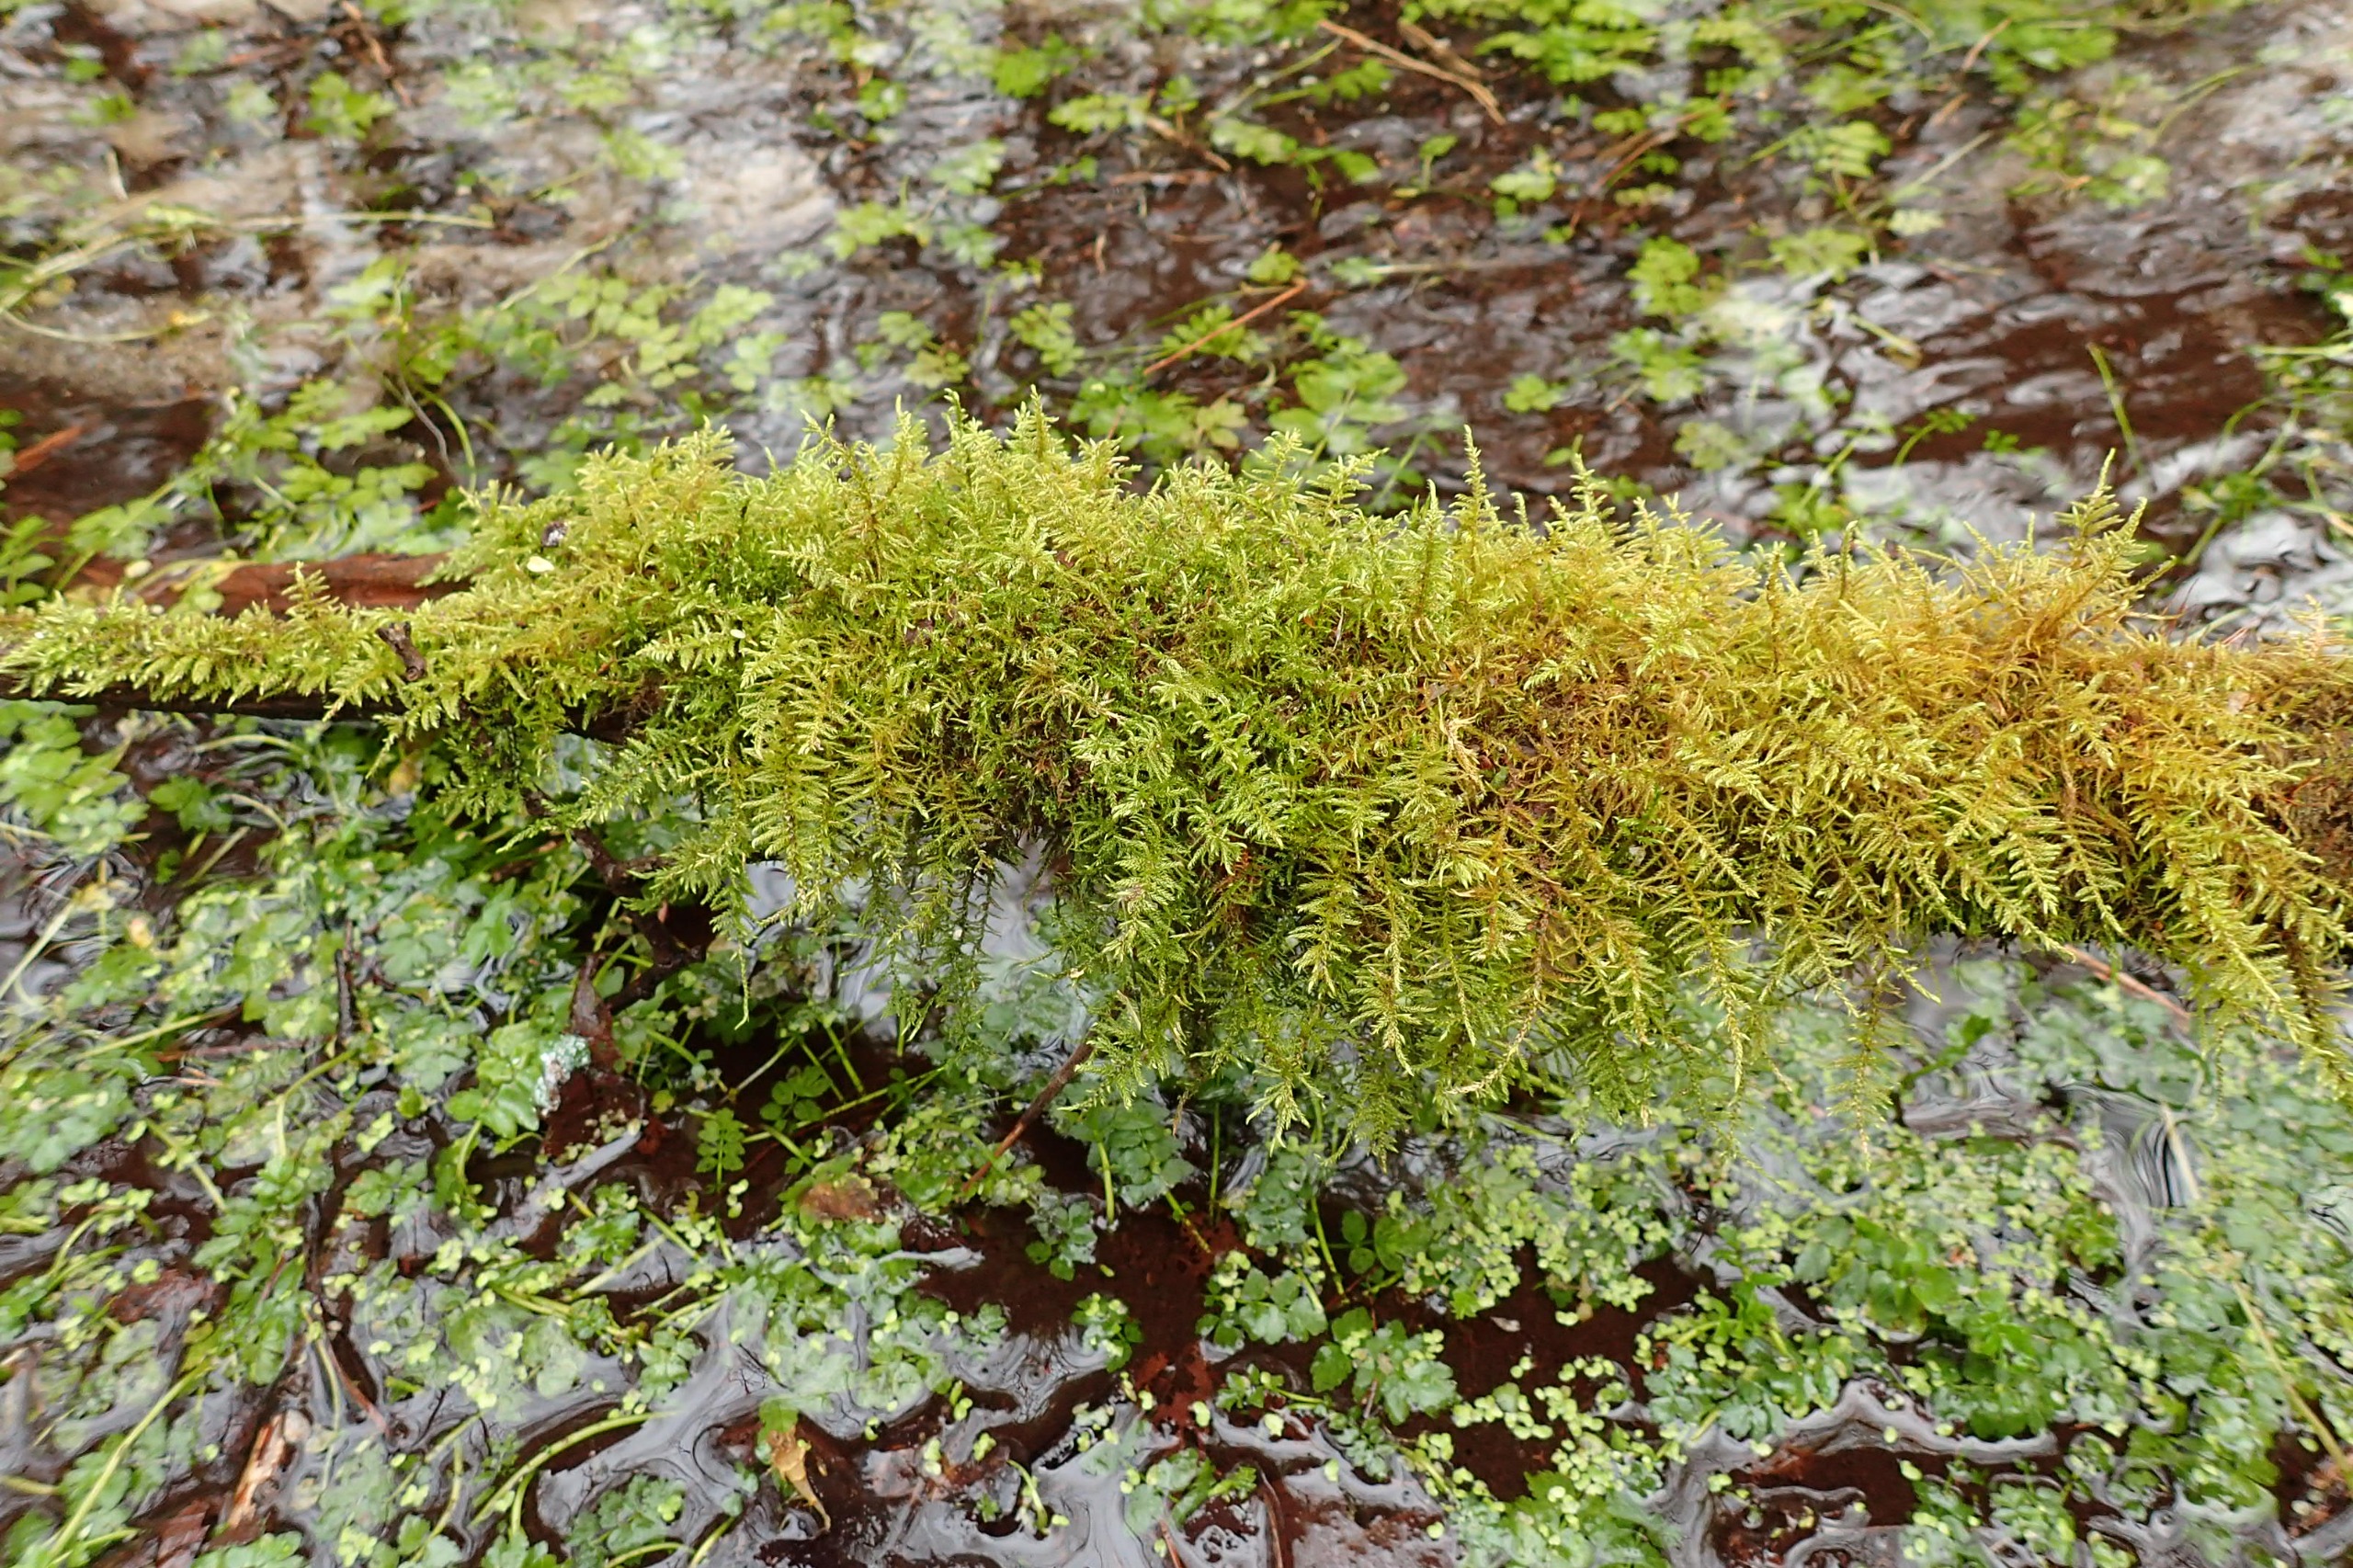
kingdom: Plantae
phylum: Bryophyta
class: Bryopsida
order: Hypnales
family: Amblystegiaceae
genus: Cratoneuron
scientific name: Cratoneuron filicinum
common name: Grøn eremitmos
